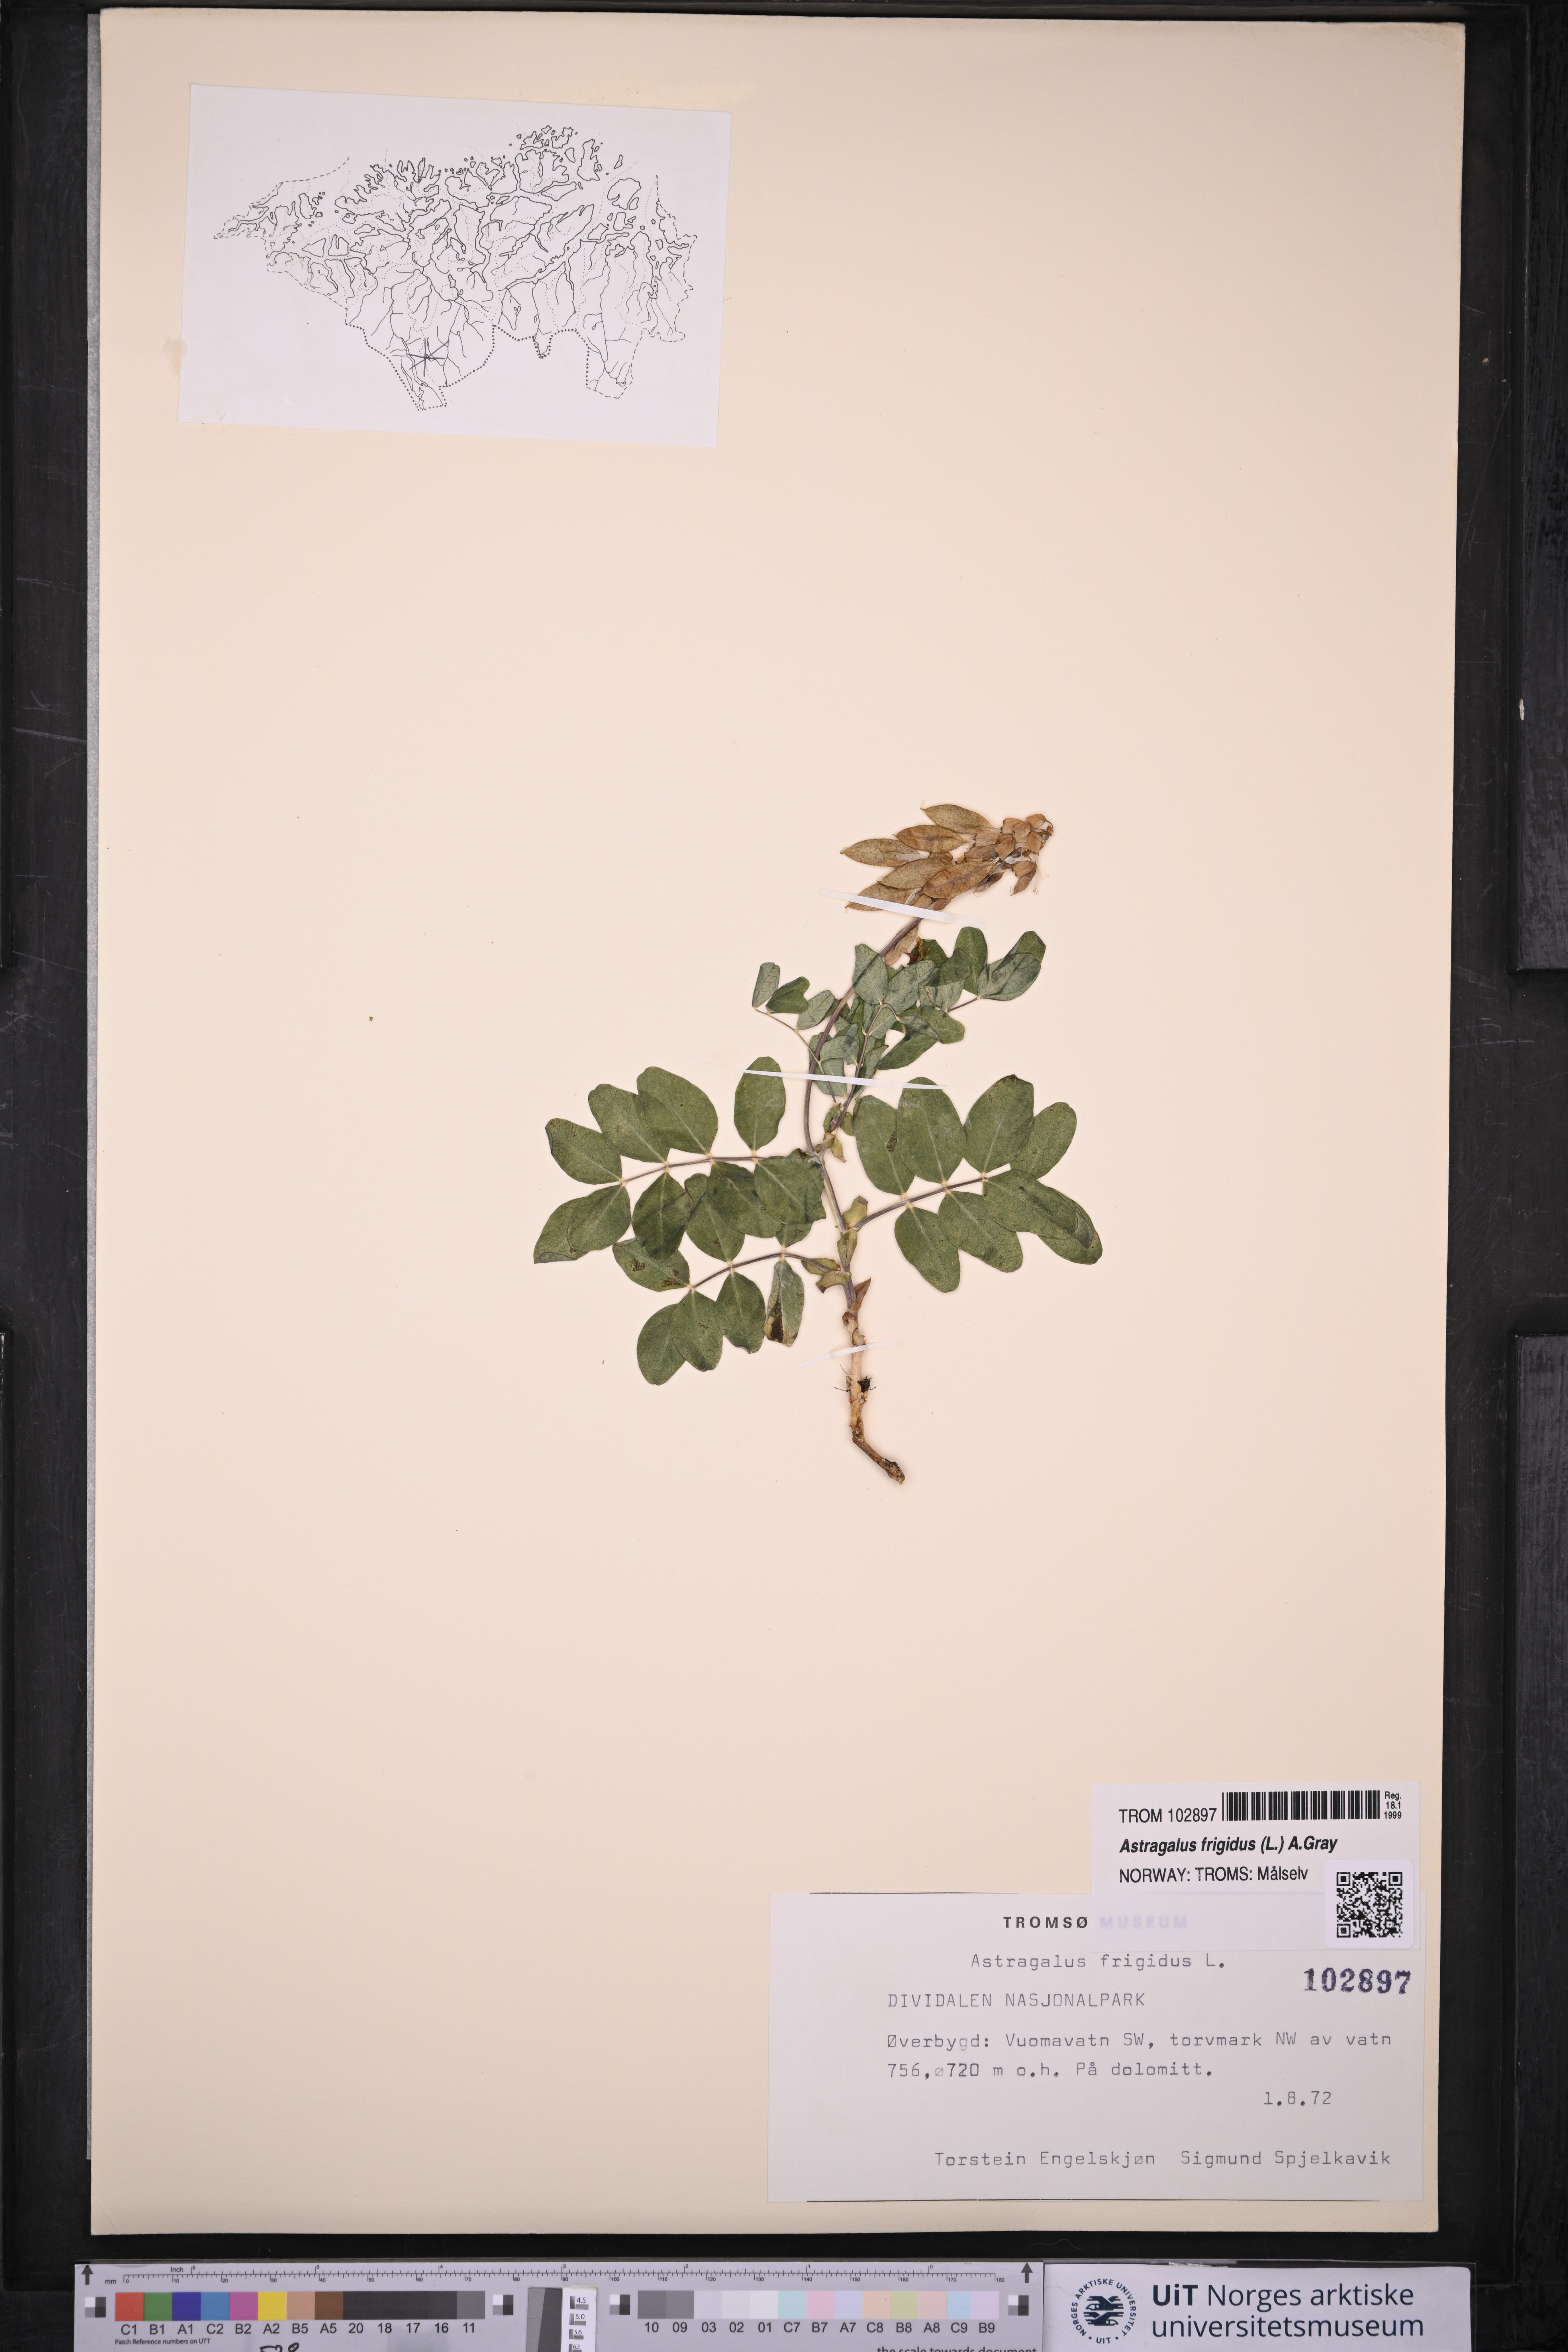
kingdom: Plantae
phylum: Tracheophyta
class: Magnoliopsida
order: Fabales
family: Fabaceae
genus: Astragalus
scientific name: Astragalus frigidus
